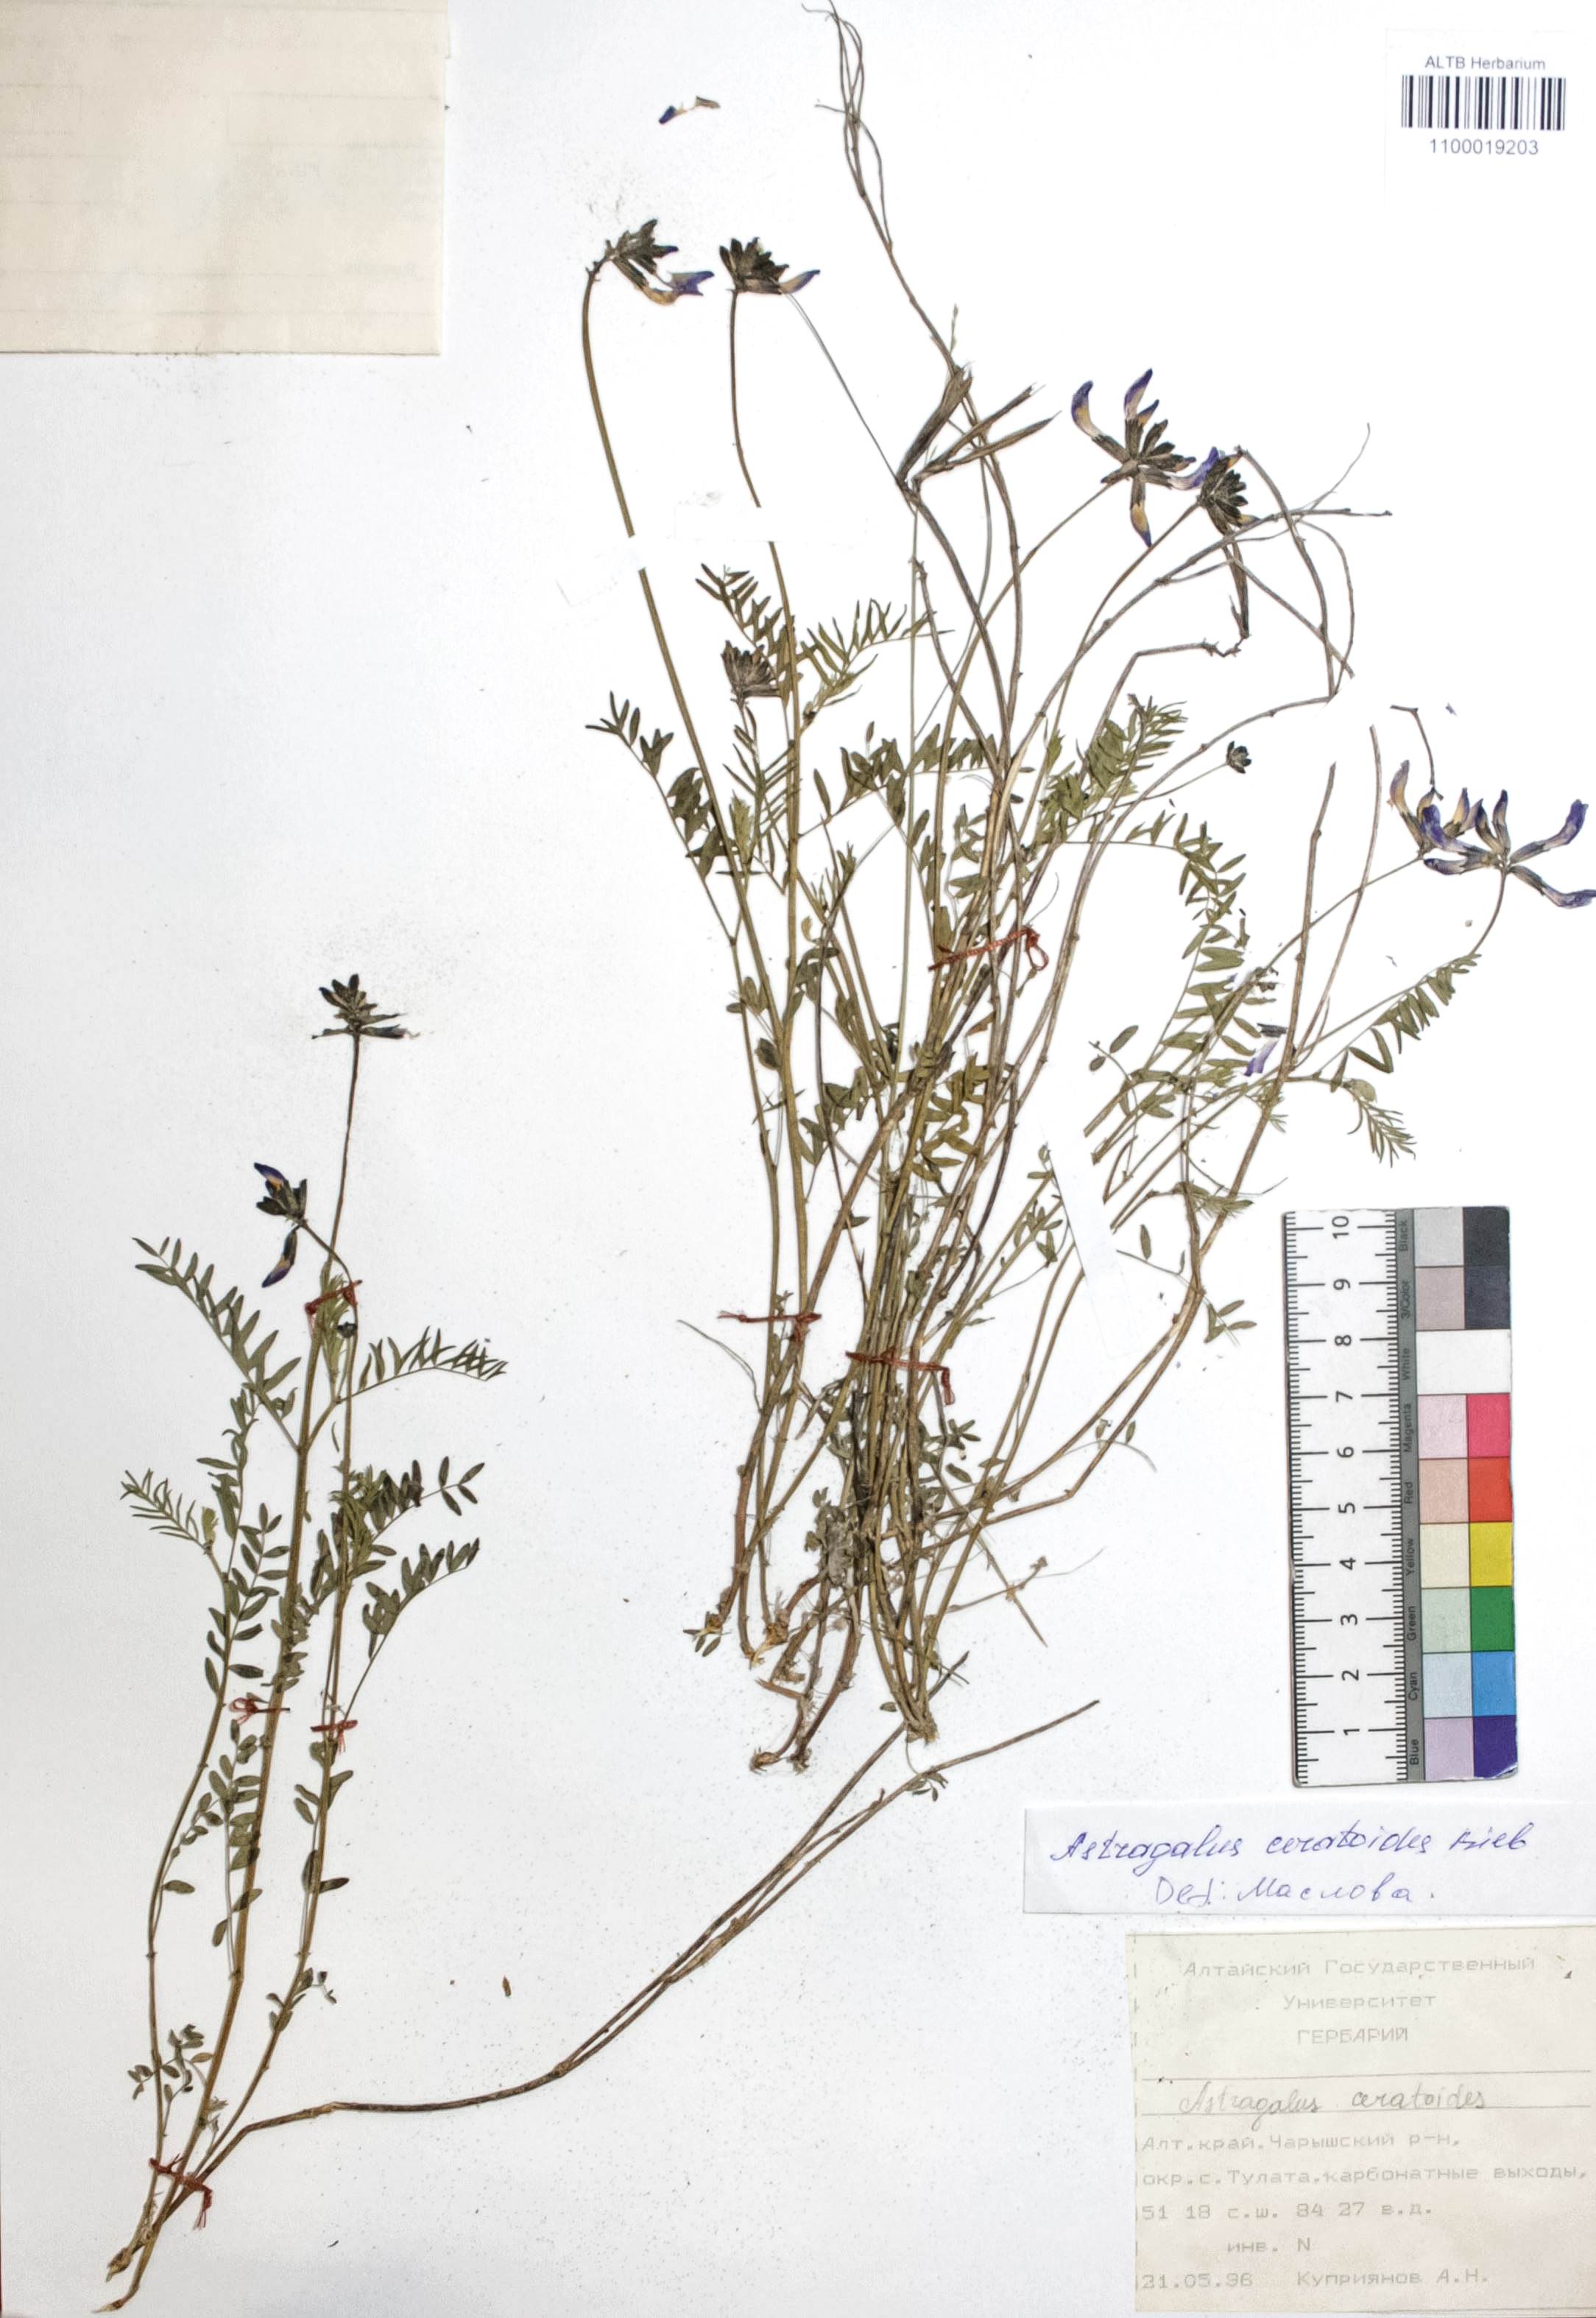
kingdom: Plantae
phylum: Tracheophyta
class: Magnoliopsida
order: Fabales
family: Fabaceae
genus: Astragalus
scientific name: Astragalus ceratoides
